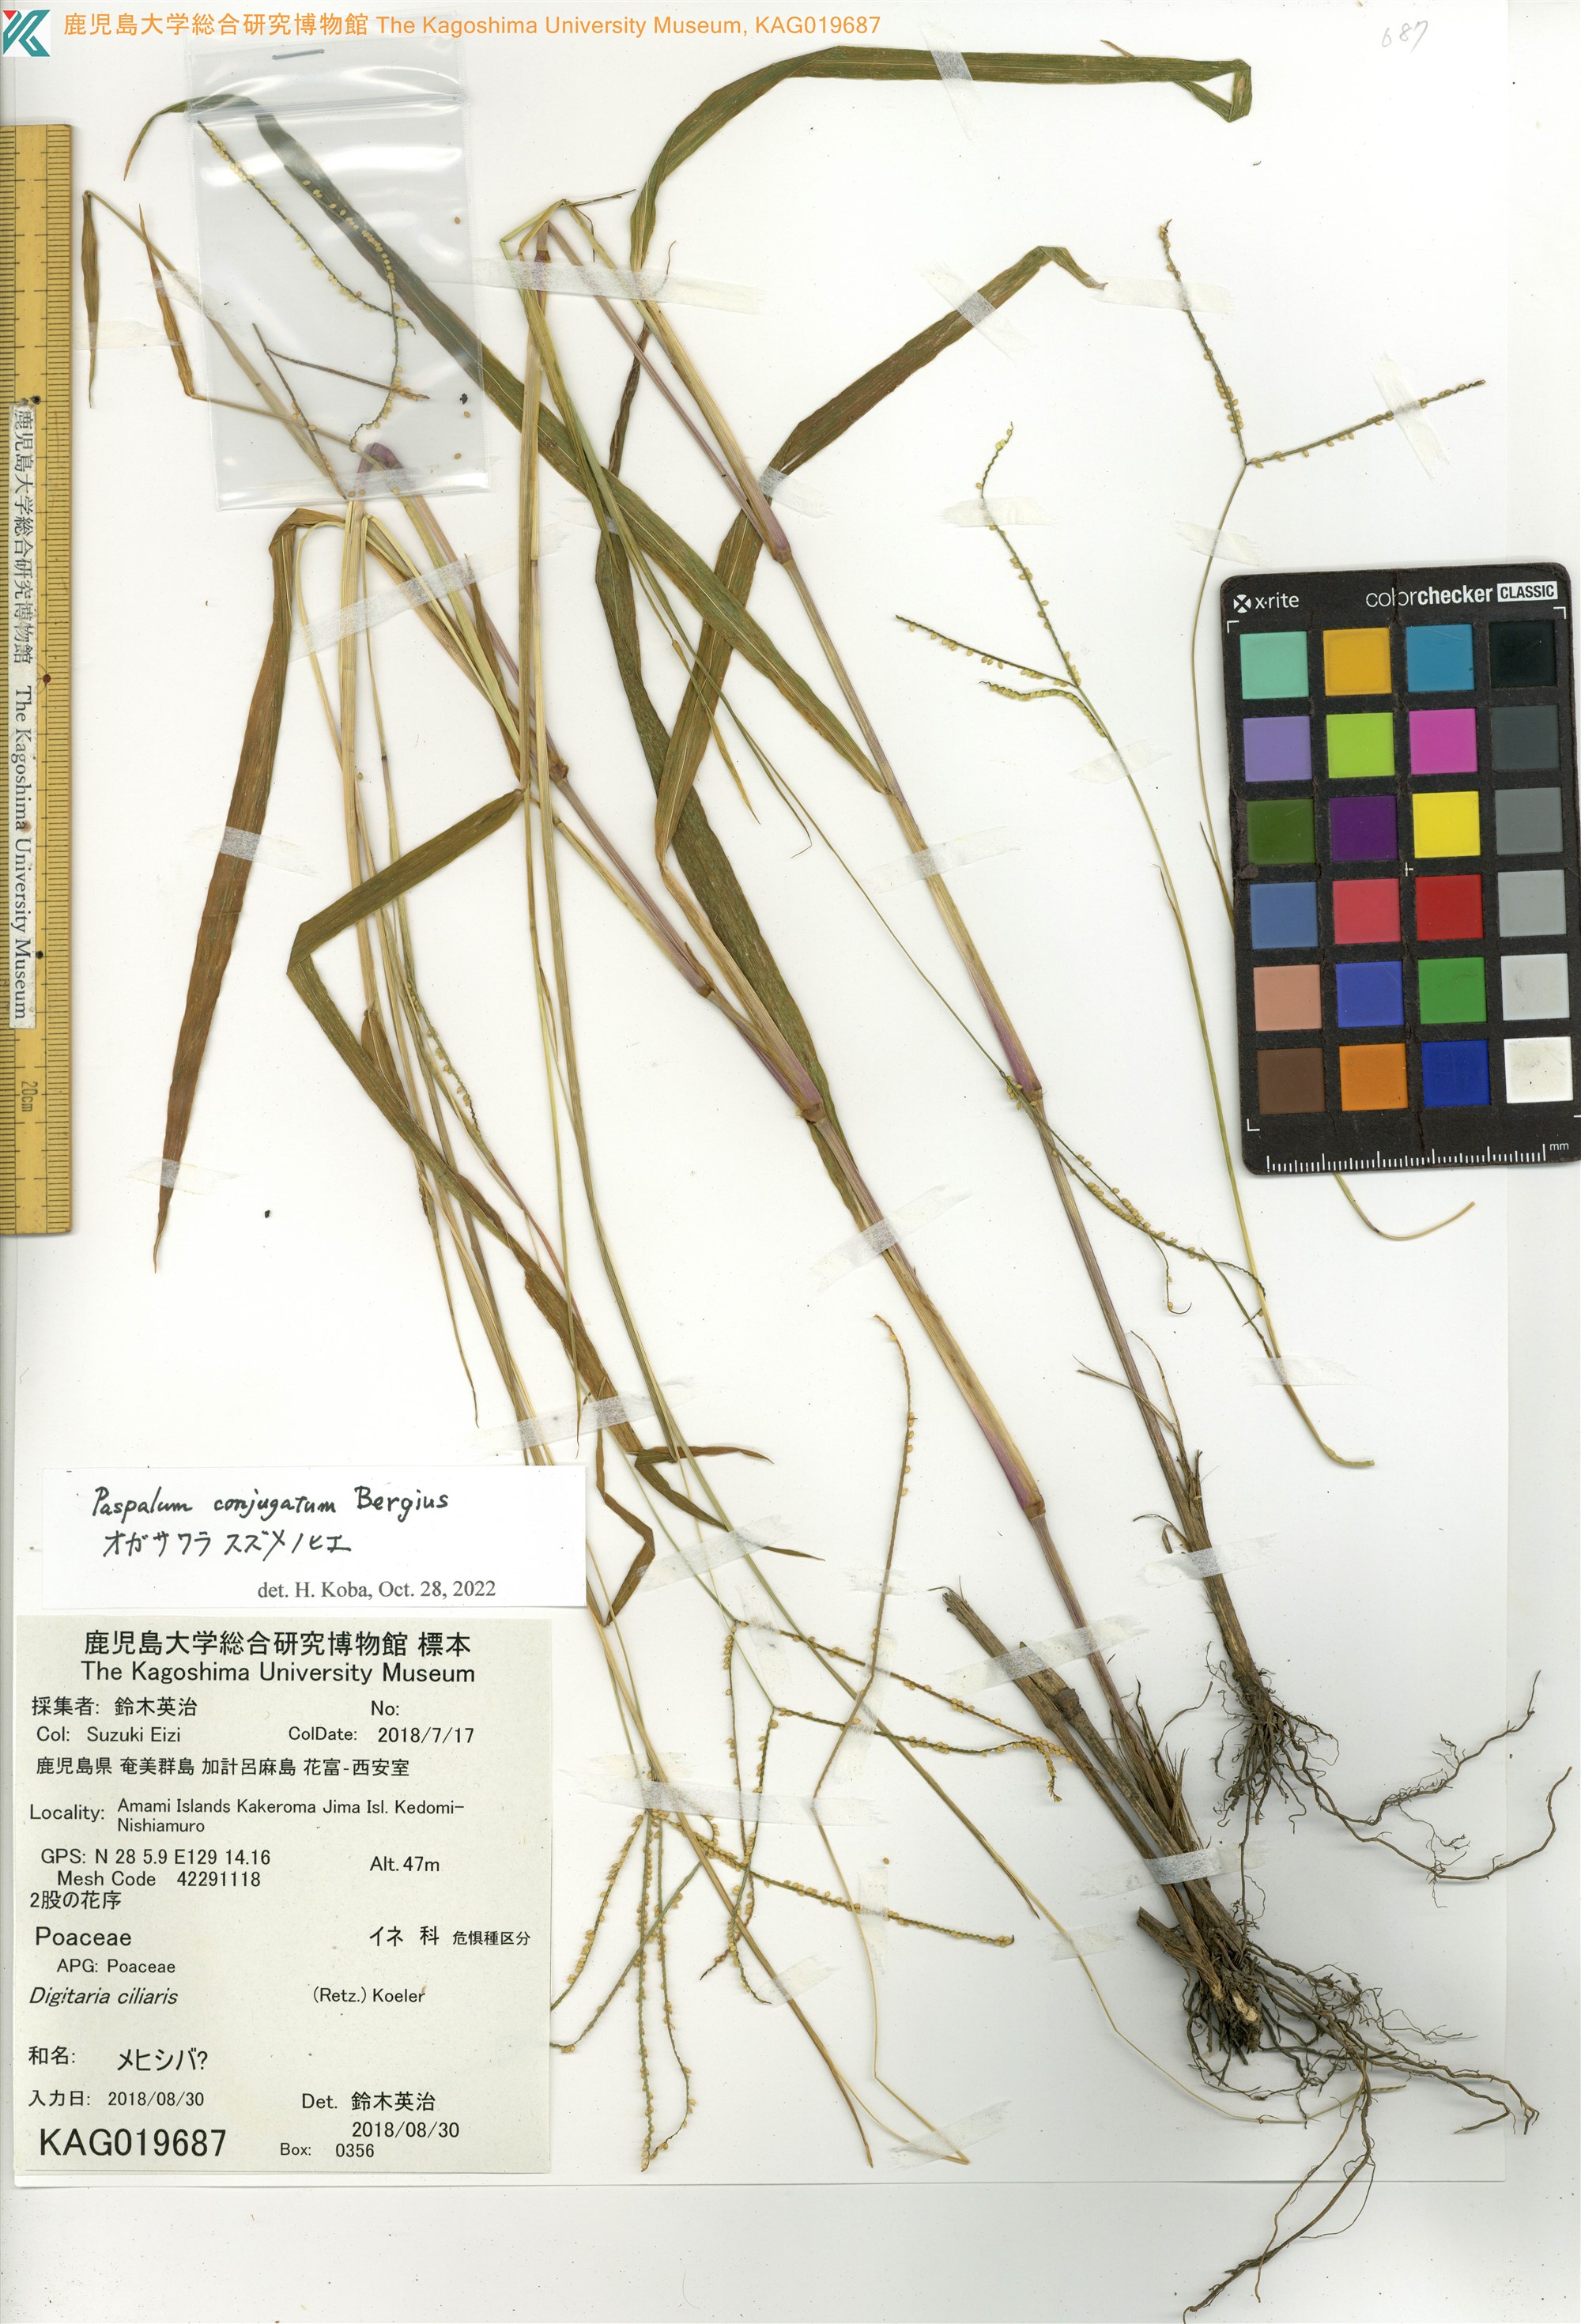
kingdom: Plantae
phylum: Tracheophyta
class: Liliopsida
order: Poales
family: Poaceae
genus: Digitaria
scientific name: Digitaria spec
